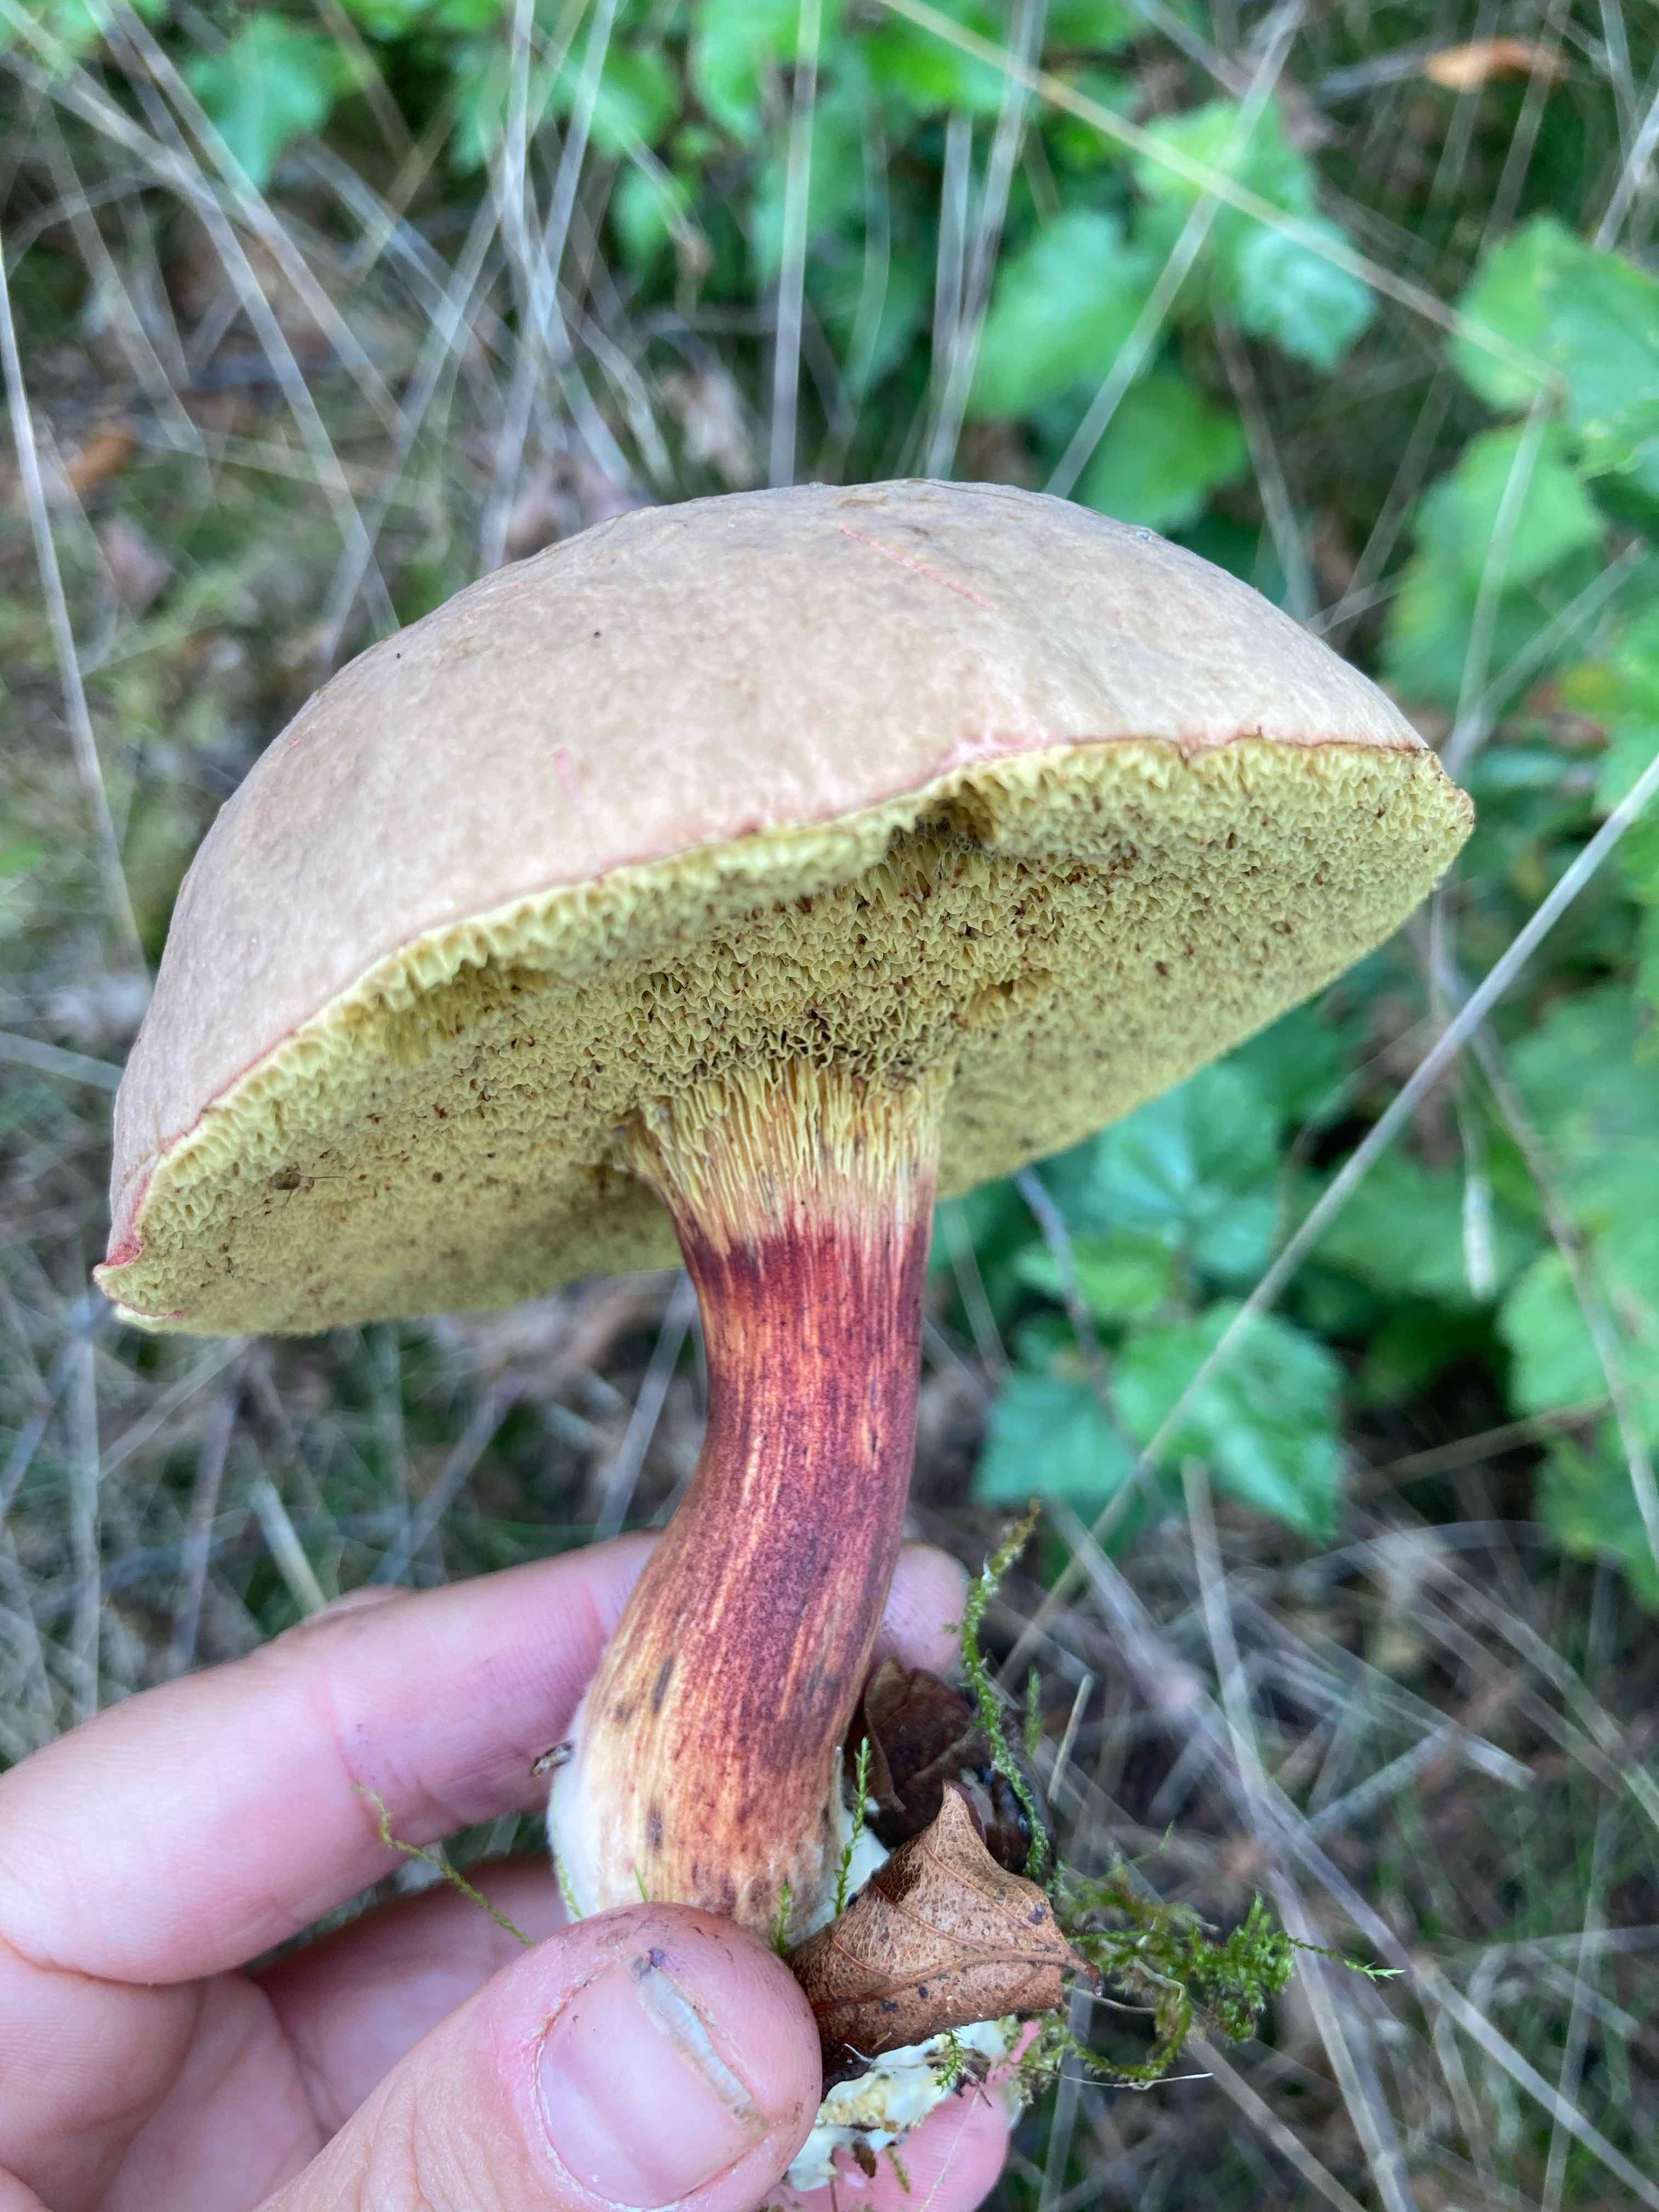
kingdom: Fungi
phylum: Basidiomycota
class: Agaricomycetes
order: Boletales
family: Boletaceae
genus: Xerocomellus
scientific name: Xerocomellus
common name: dværgrørhat
